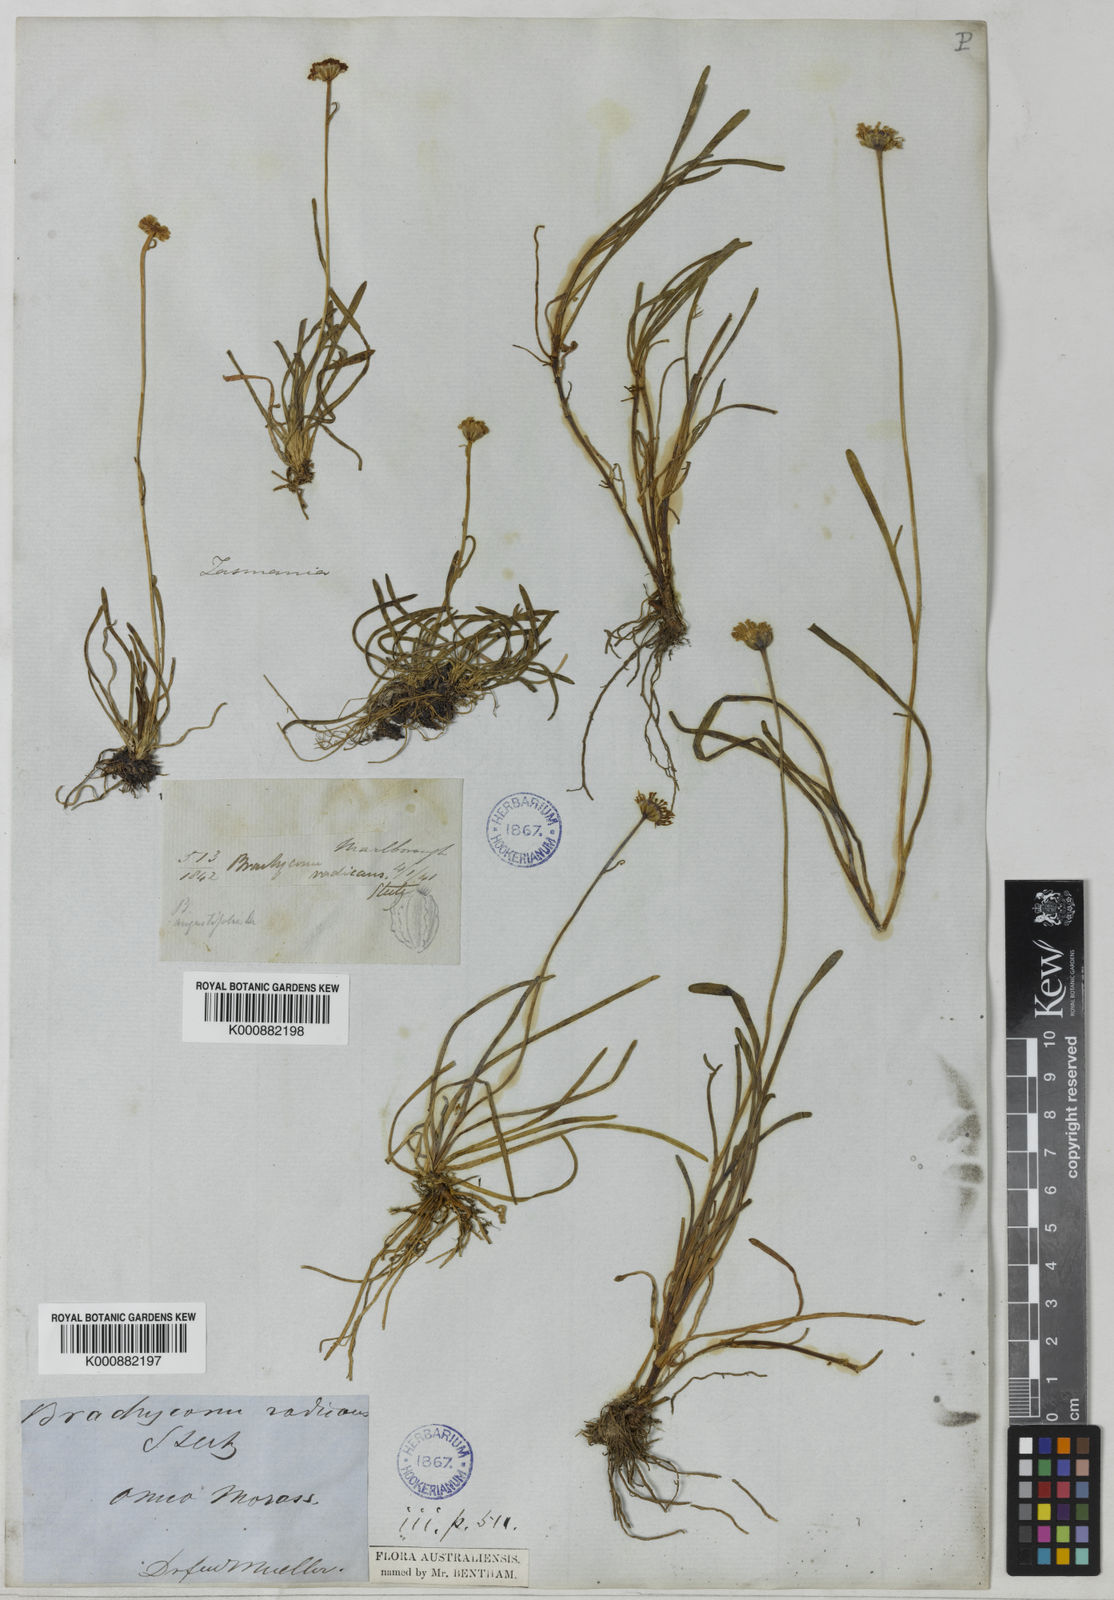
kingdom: Plantae
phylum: Tracheophyta
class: Magnoliopsida
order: Asterales
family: Asteraceae
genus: Brachyscome
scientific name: Brachyscome radicans
